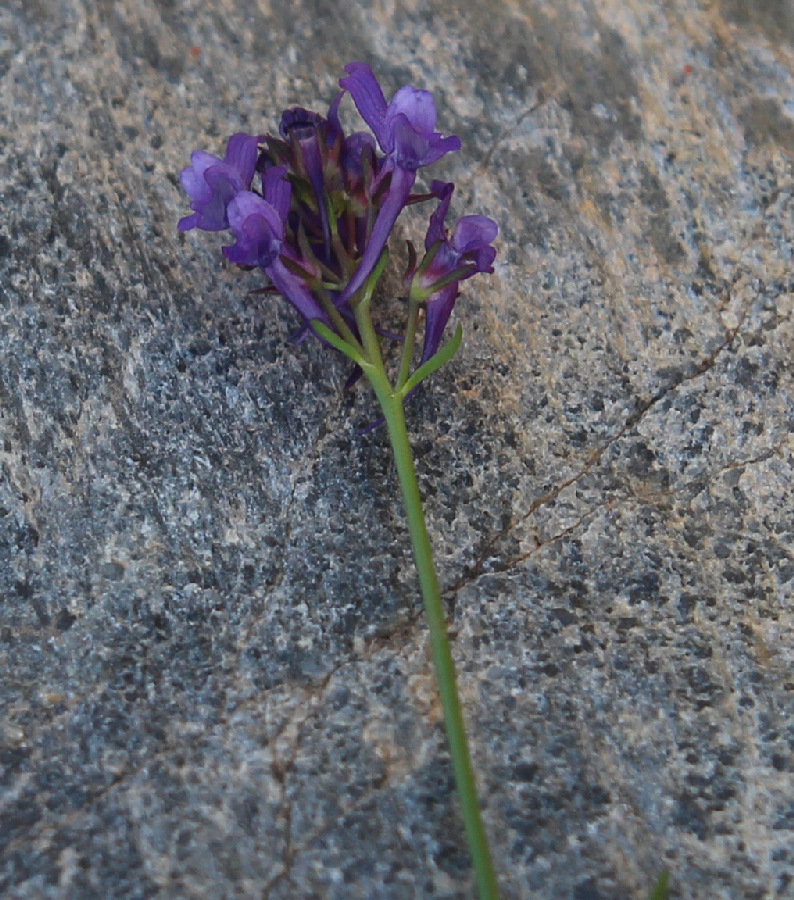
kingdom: Plantae
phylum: Tracheophyta
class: Magnoliopsida
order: Lamiales
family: Plantaginaceae
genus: Linaria
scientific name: Linaria pelisseriana
